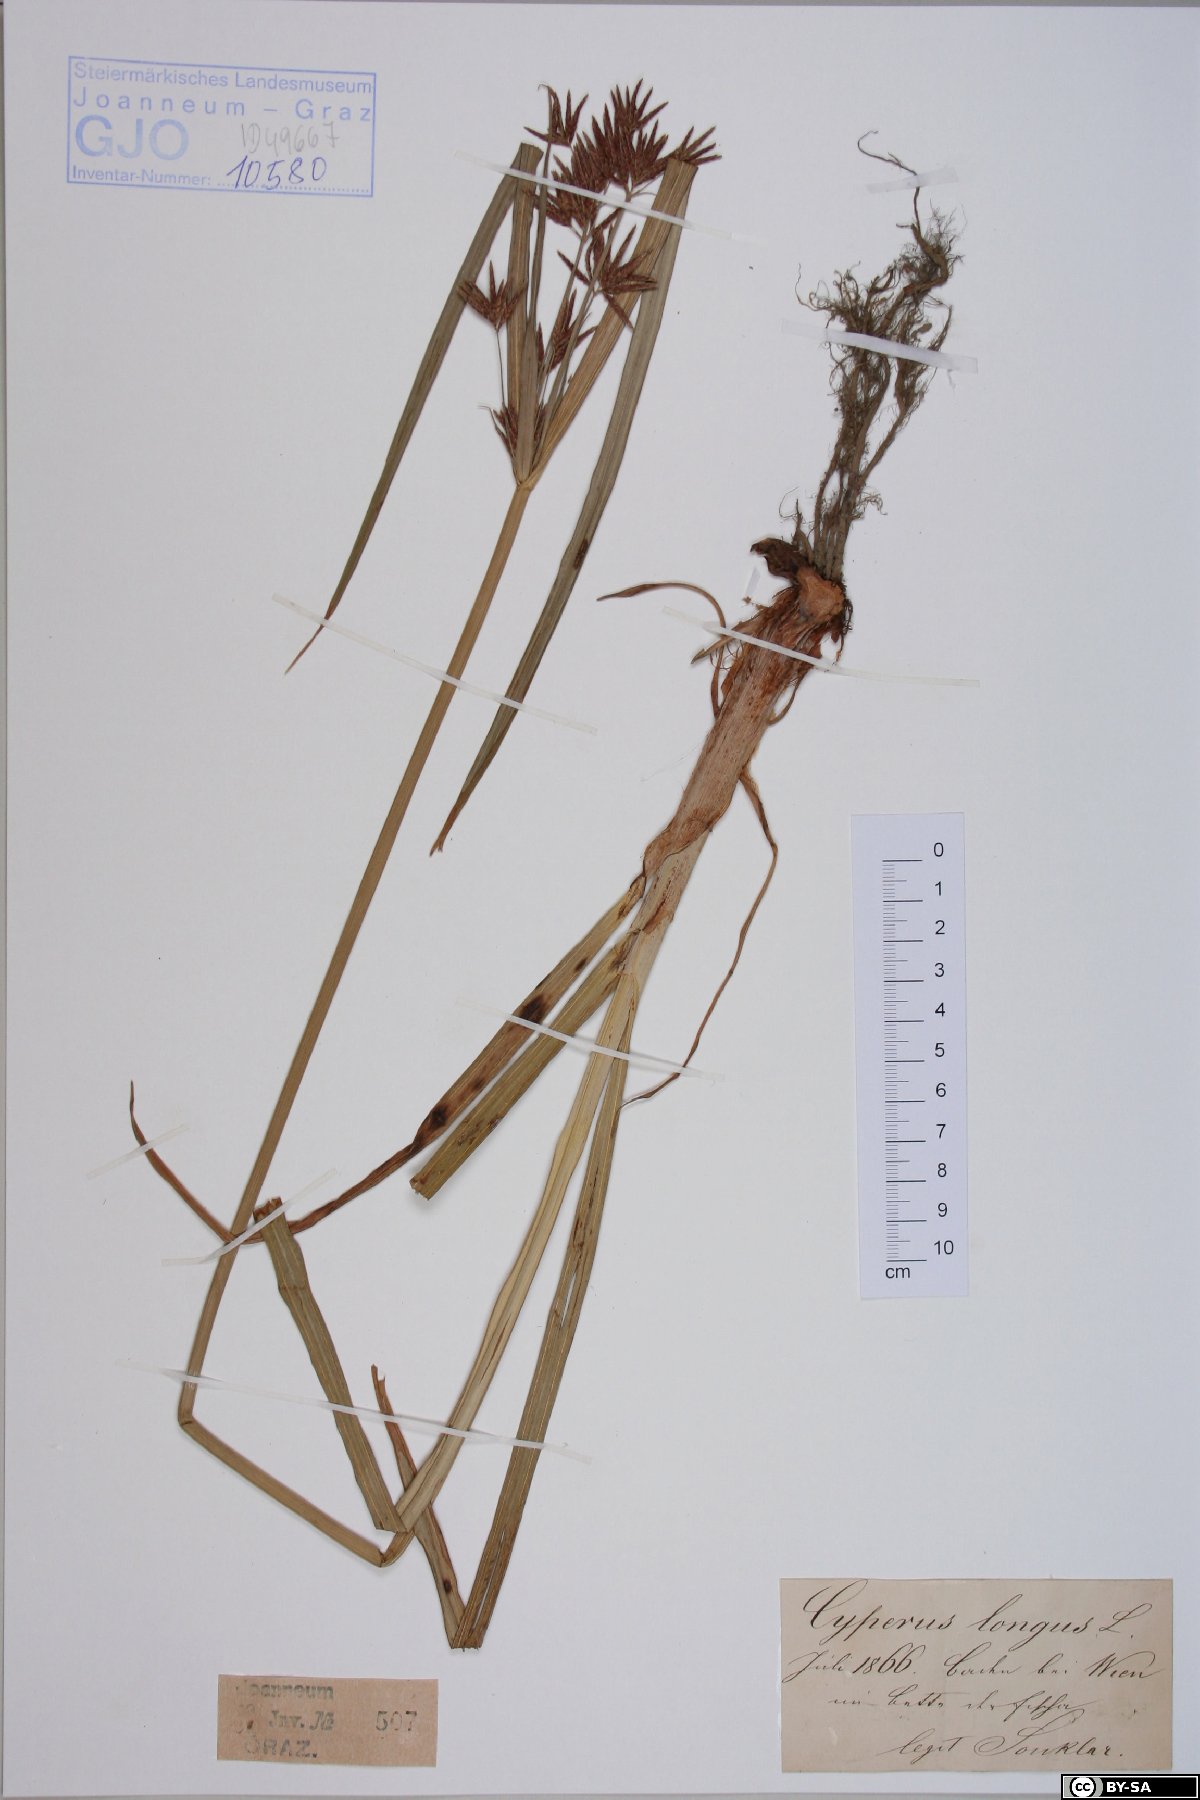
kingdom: Plantae
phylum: Tracheophyta
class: Liliopsida
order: Poales
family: Cyperaceae
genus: Cyperus
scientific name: Cyperus longus
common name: Galingale
